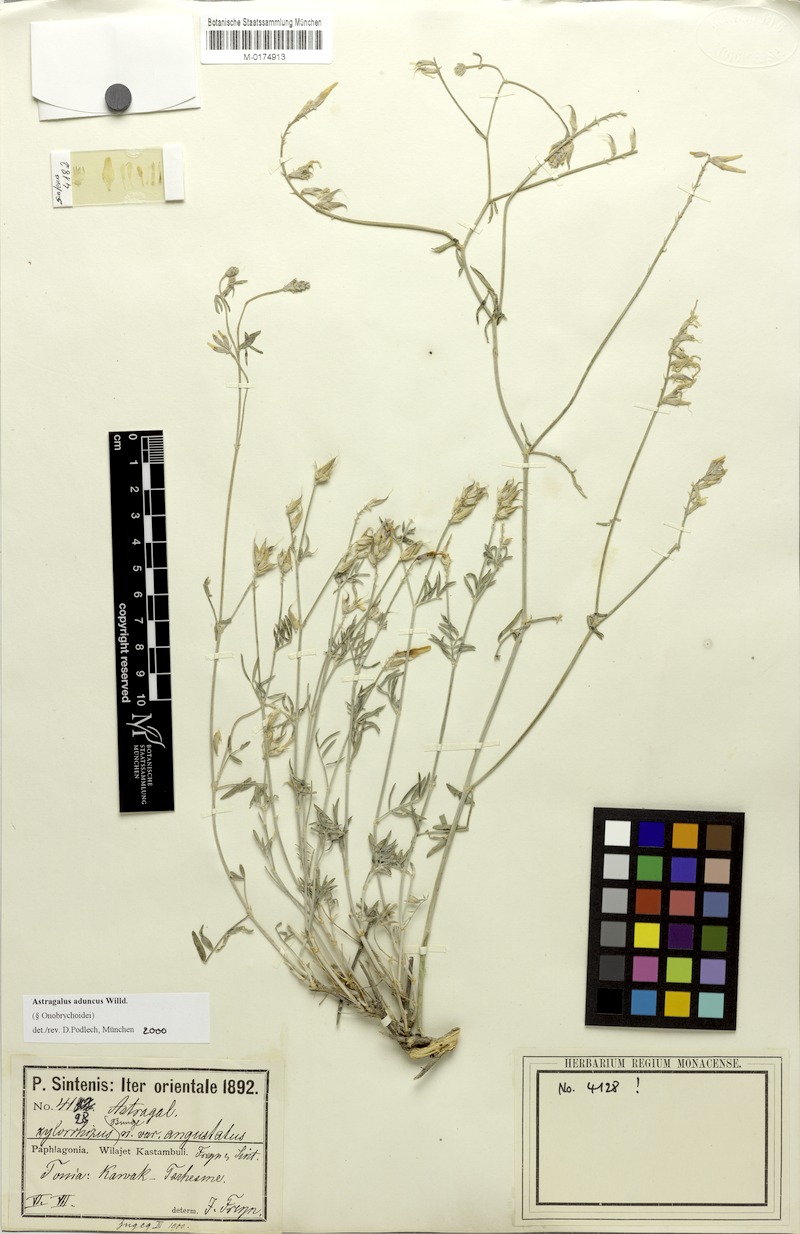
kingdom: Plantae
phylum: Tracheophyta
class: Magnoliopsida
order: Fabales
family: Fabaceae
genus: Astragalus
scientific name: Astragalus aduncus
